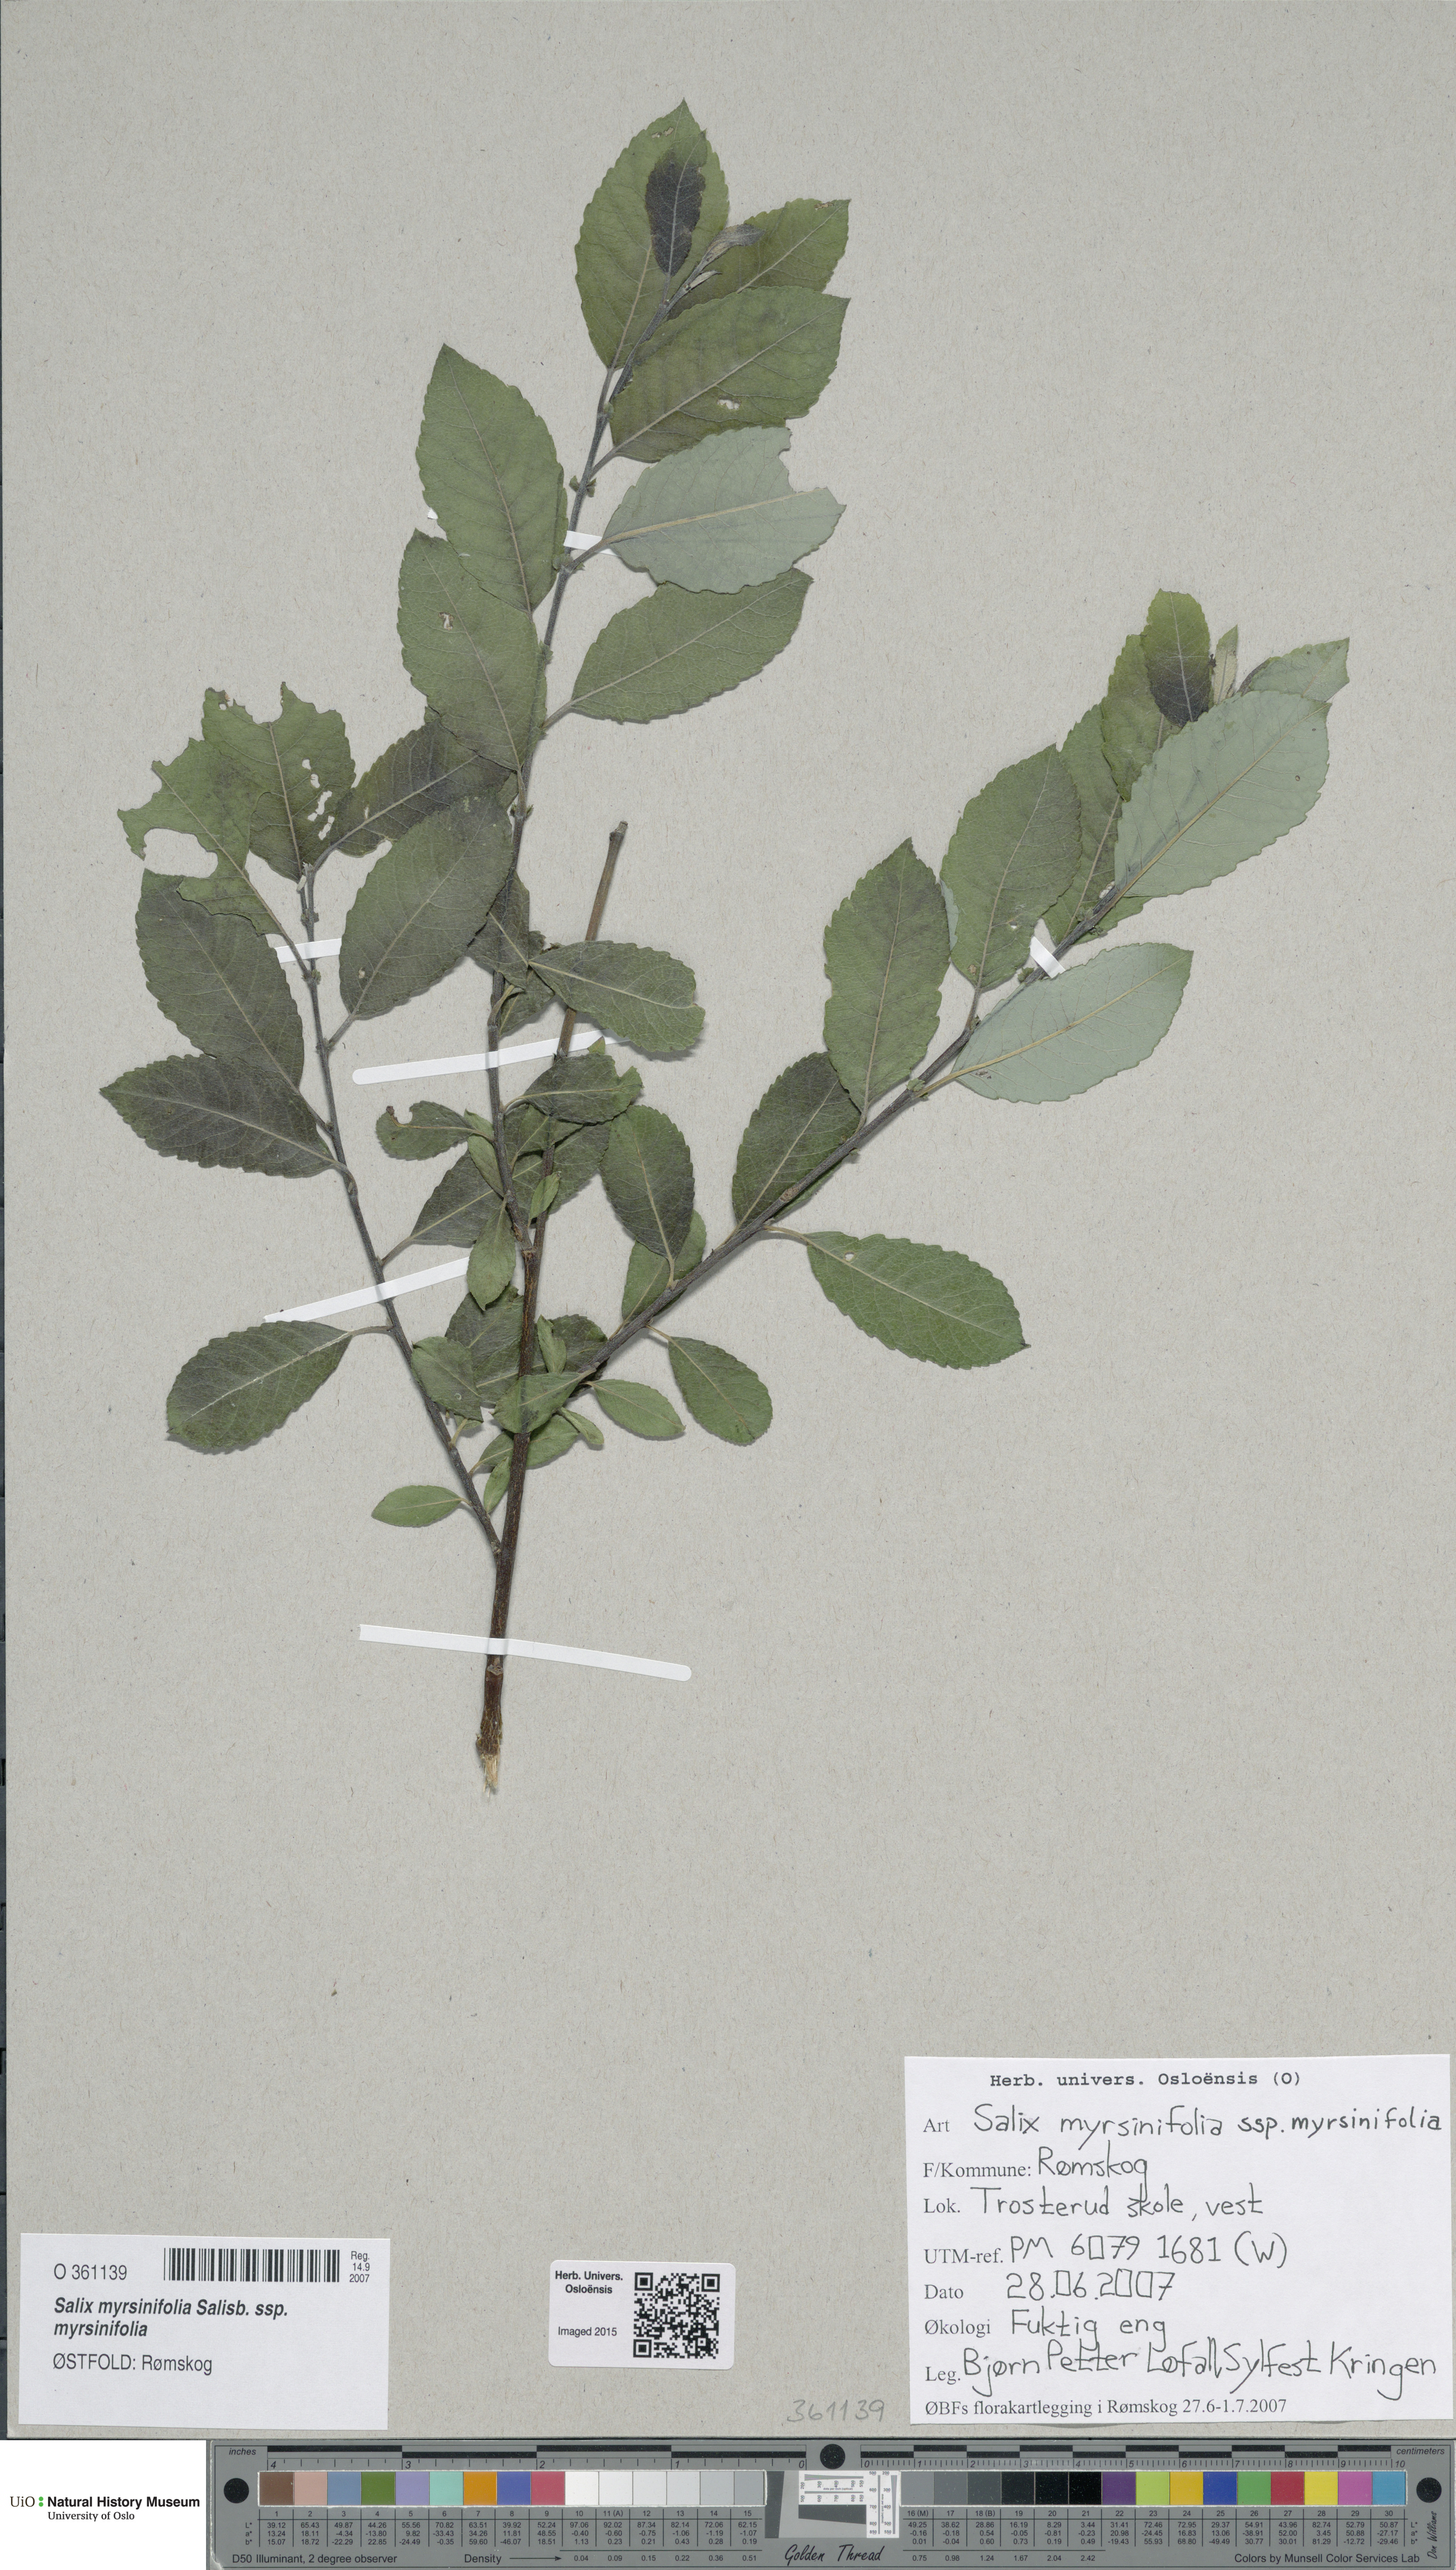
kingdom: Plantae
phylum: Tracheophyta
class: Magnoliopsida
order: Malpighiales
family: Salicaceae
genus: Salix
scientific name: Salix myrsinifolia
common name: Dark-leaved willow
